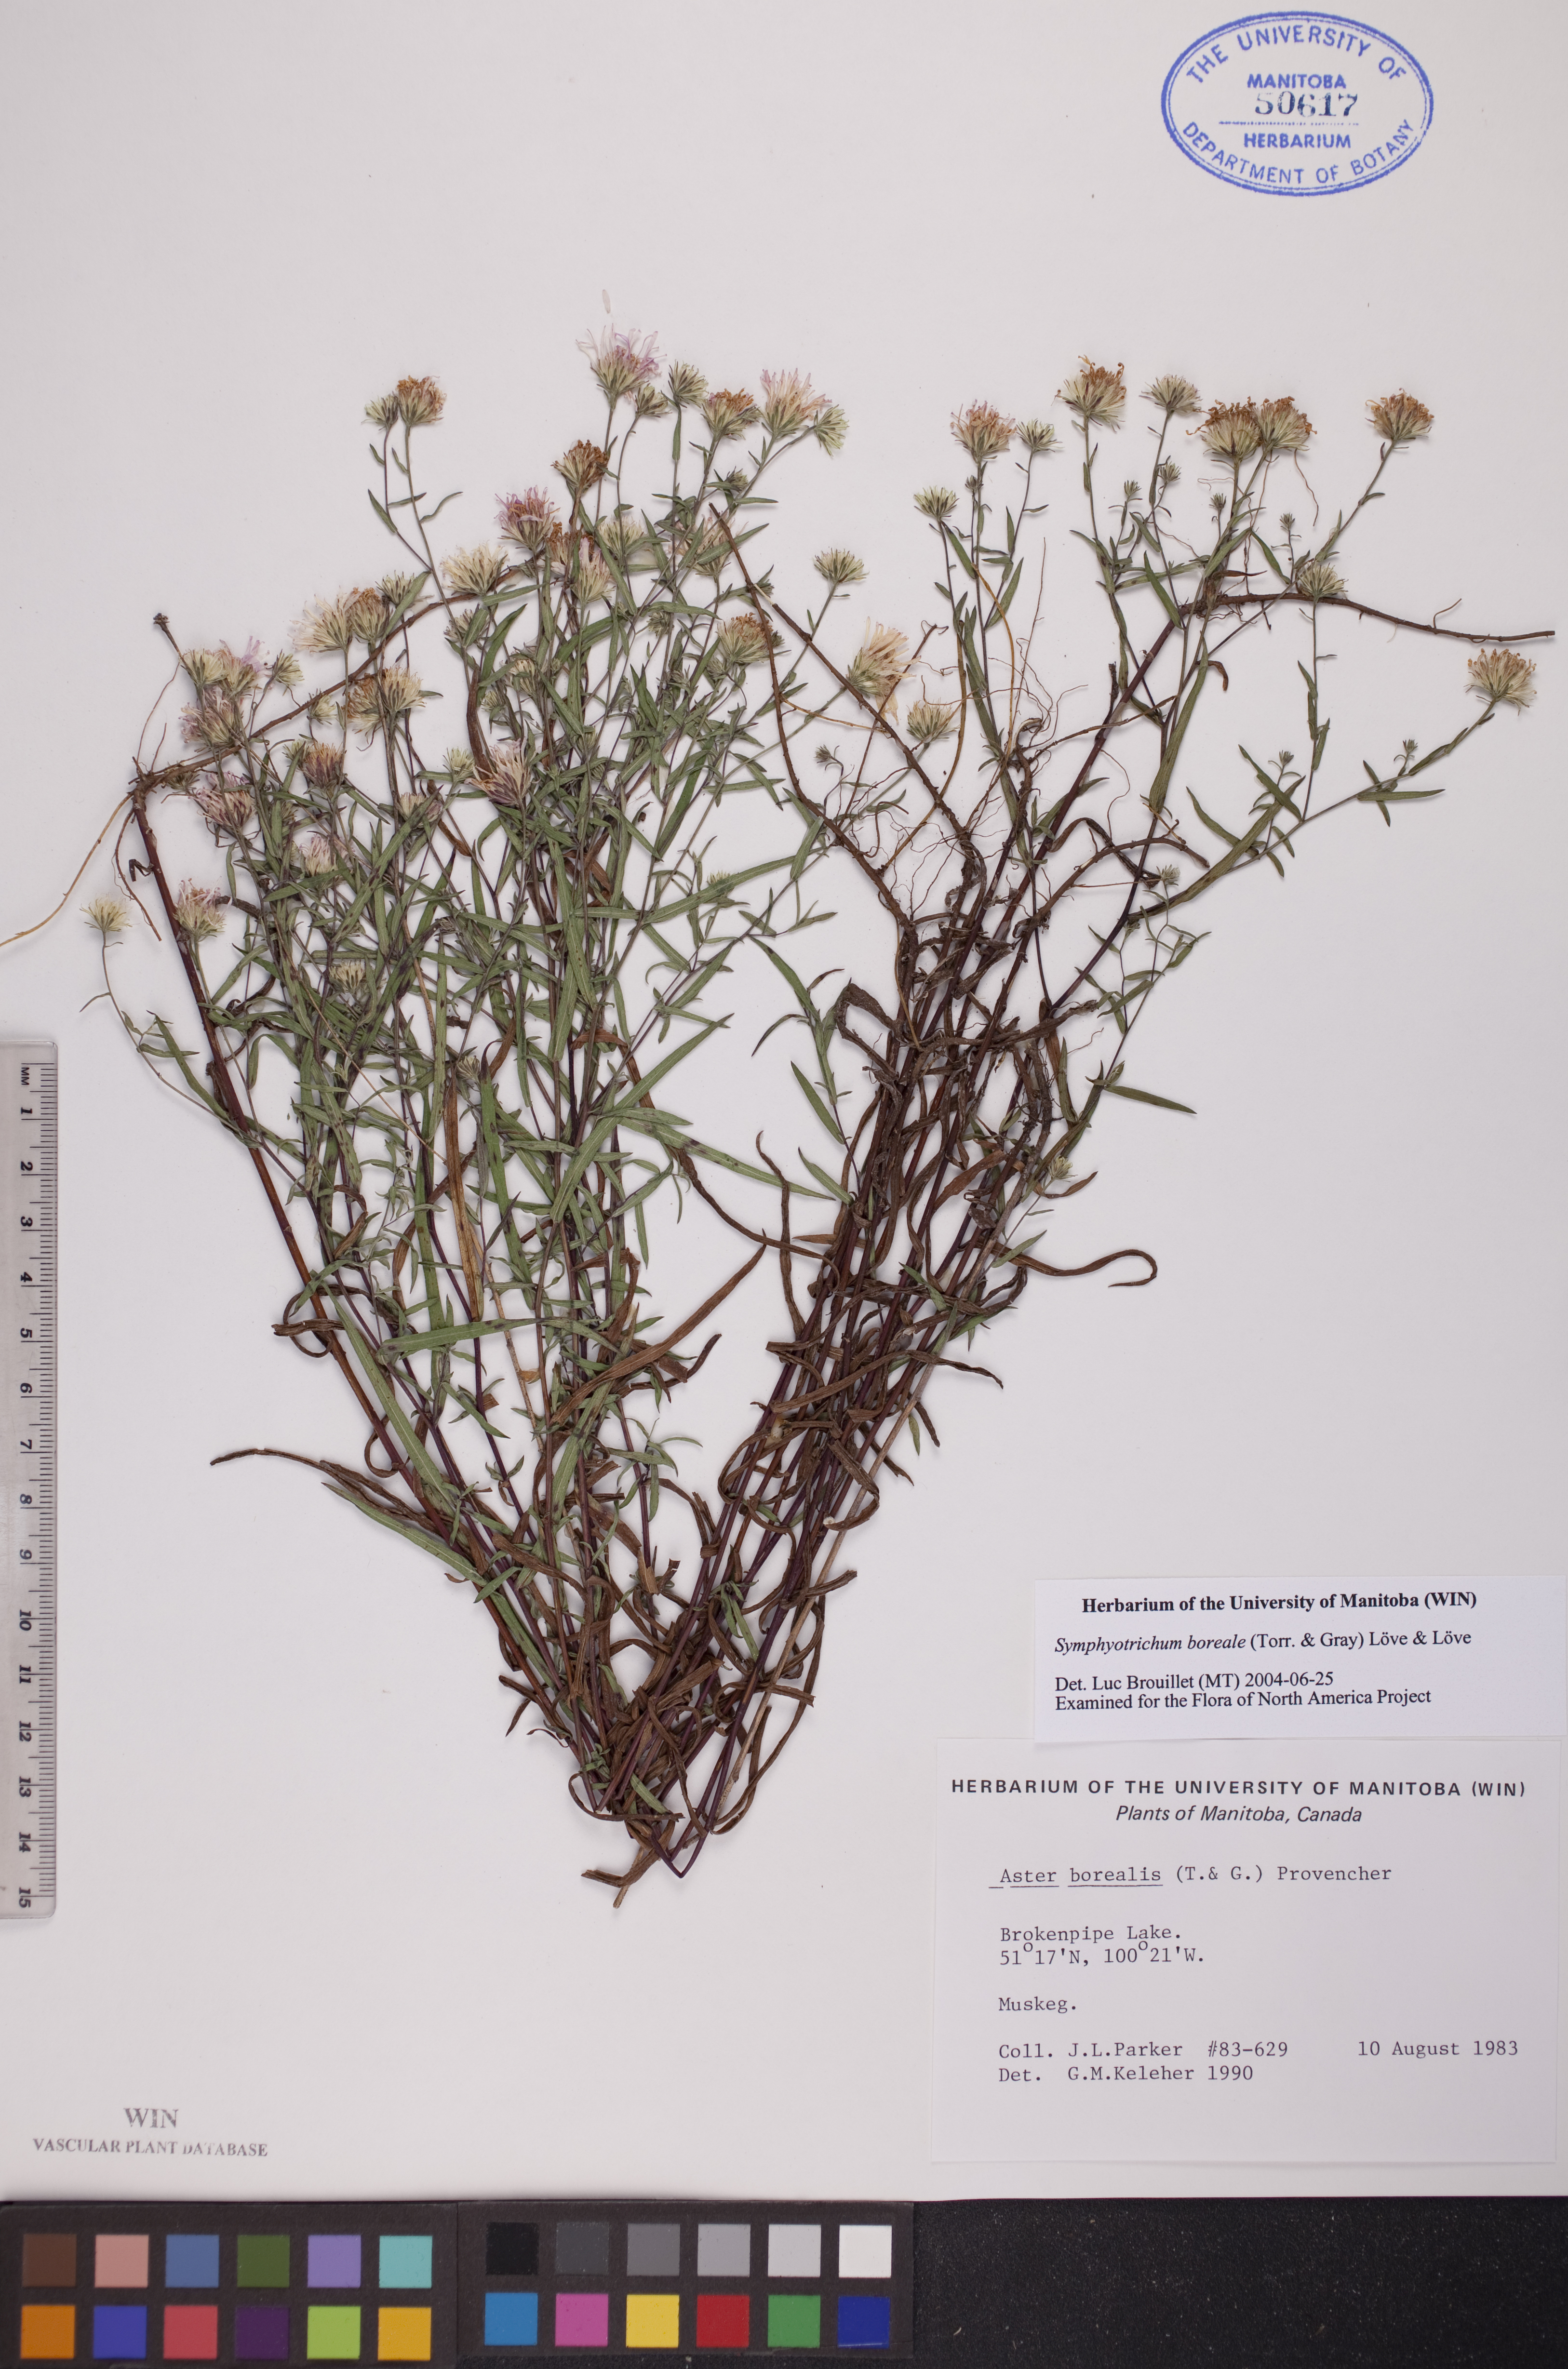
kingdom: Plantae
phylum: Tracheophyta
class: Magnoliopsida
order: Asterales
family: Asteraceae
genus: Symphyotrichum
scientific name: Symphyotrichum boreale
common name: Northern bog aster
